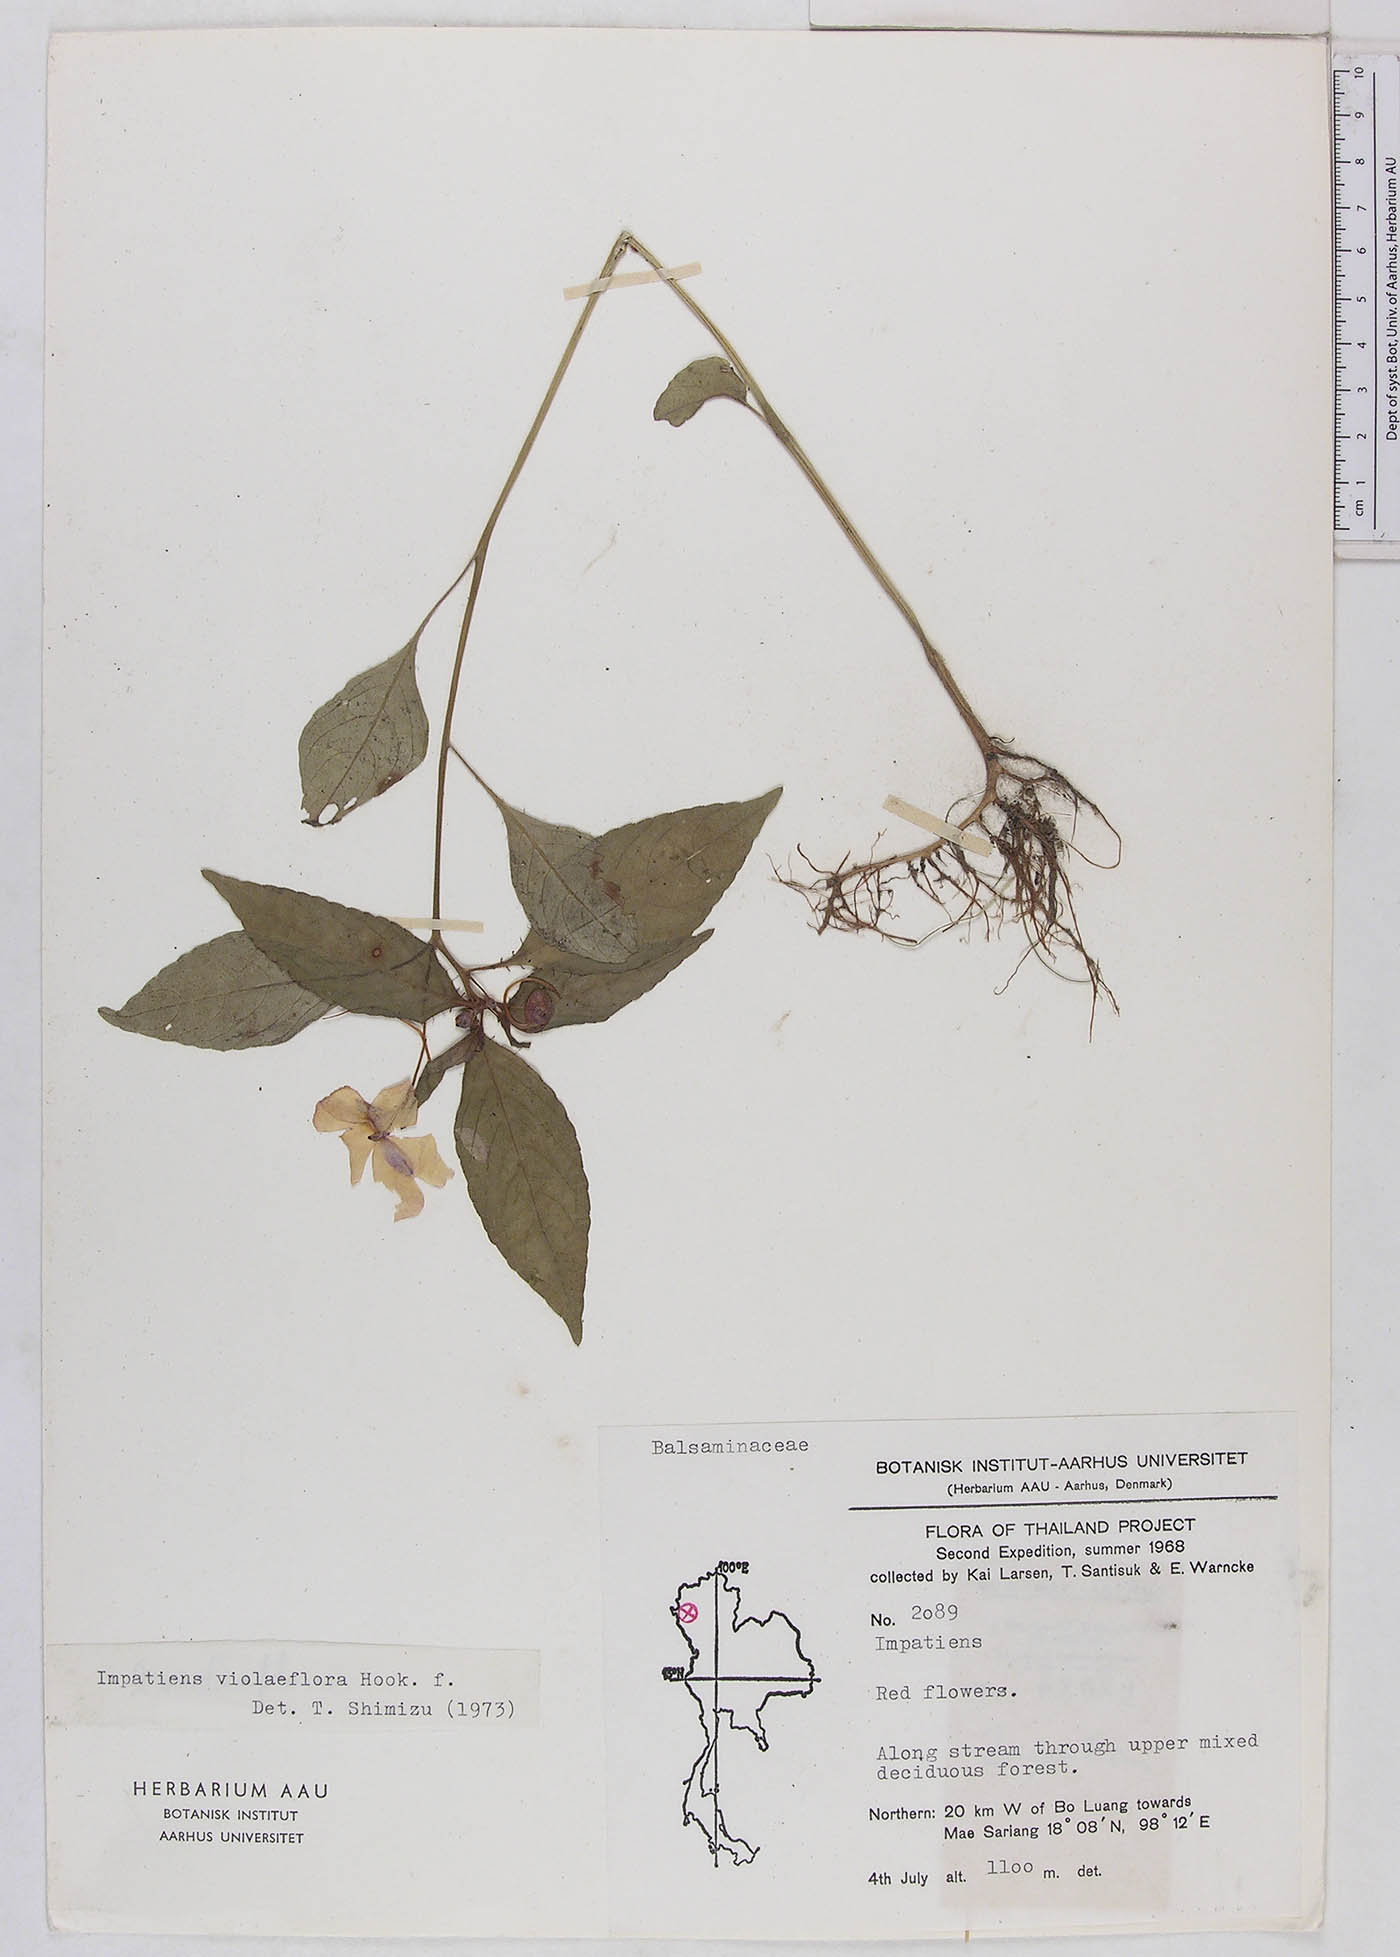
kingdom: Plantae
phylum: Tracheophyta
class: Magnoliopsida
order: Ericales
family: Balsaminaceae
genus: Impatiens
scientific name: Impatiens violiflora
